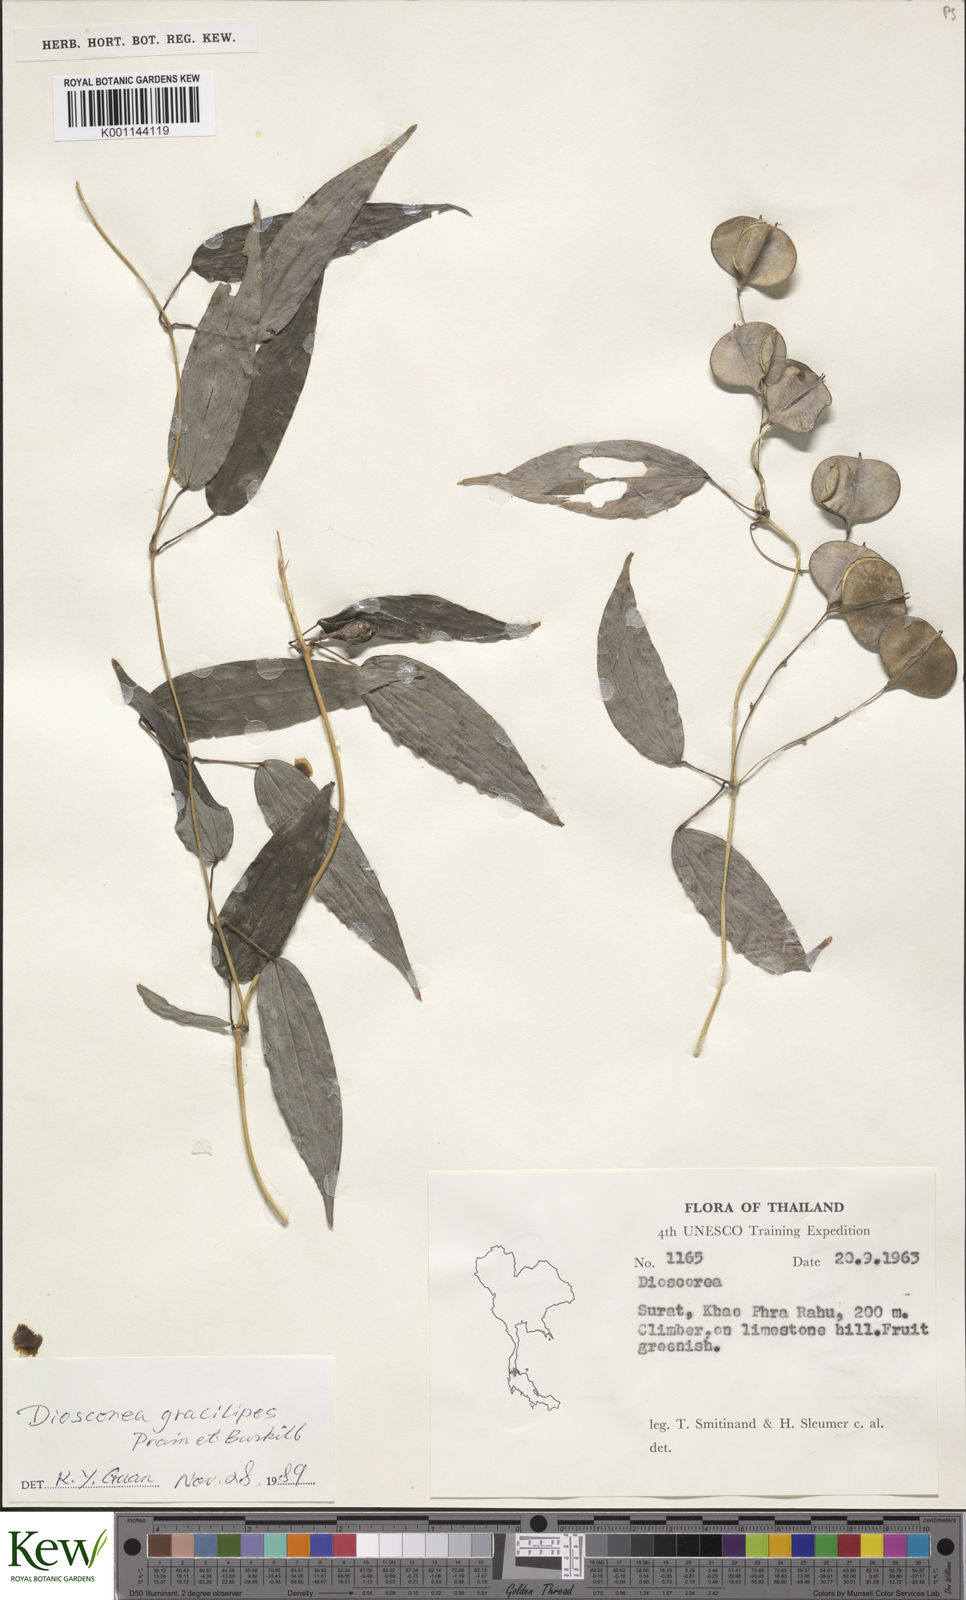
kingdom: Plantae
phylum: Tracheophyta
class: Liliopsida
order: Dioscoreales
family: Dioscoreaceae
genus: Dioscorea
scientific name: Dioscorea gracilipes
